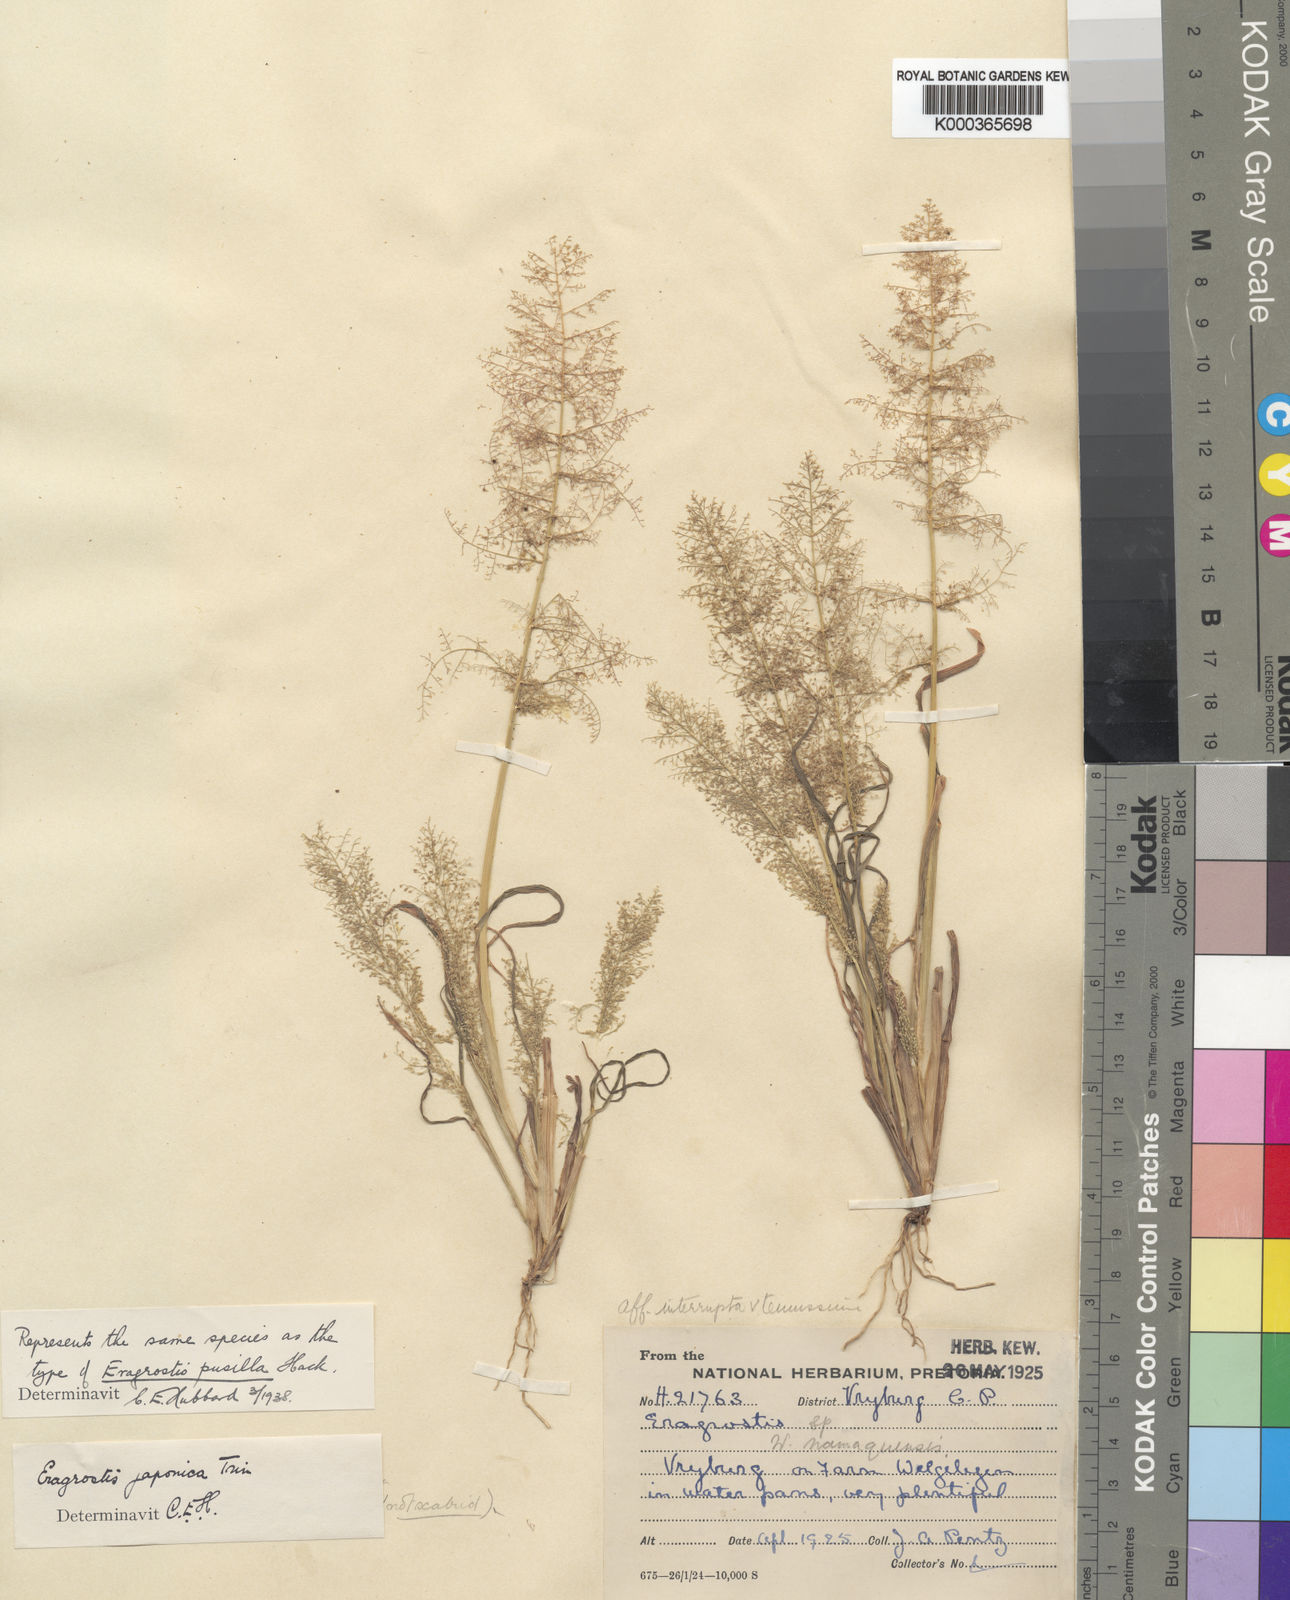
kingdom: Plantae
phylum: Tracheophyta
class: Liliopsida
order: Poales
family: Poaceae
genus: Eragrostis
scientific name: Eragrostis japonica
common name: Pond lovegrass
